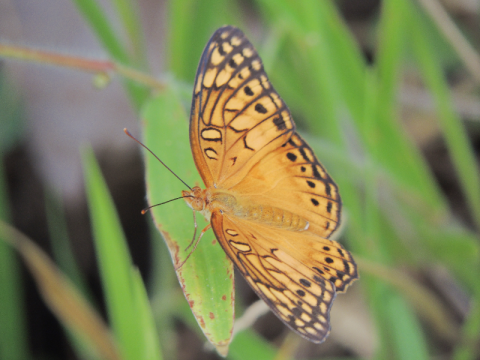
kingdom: Animalia
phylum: Arthropoda
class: Insecta
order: Lepidoptera
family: Nymphalidae
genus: Euptoieta
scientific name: Euptoieta hegesia
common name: Mexican Fritillary
